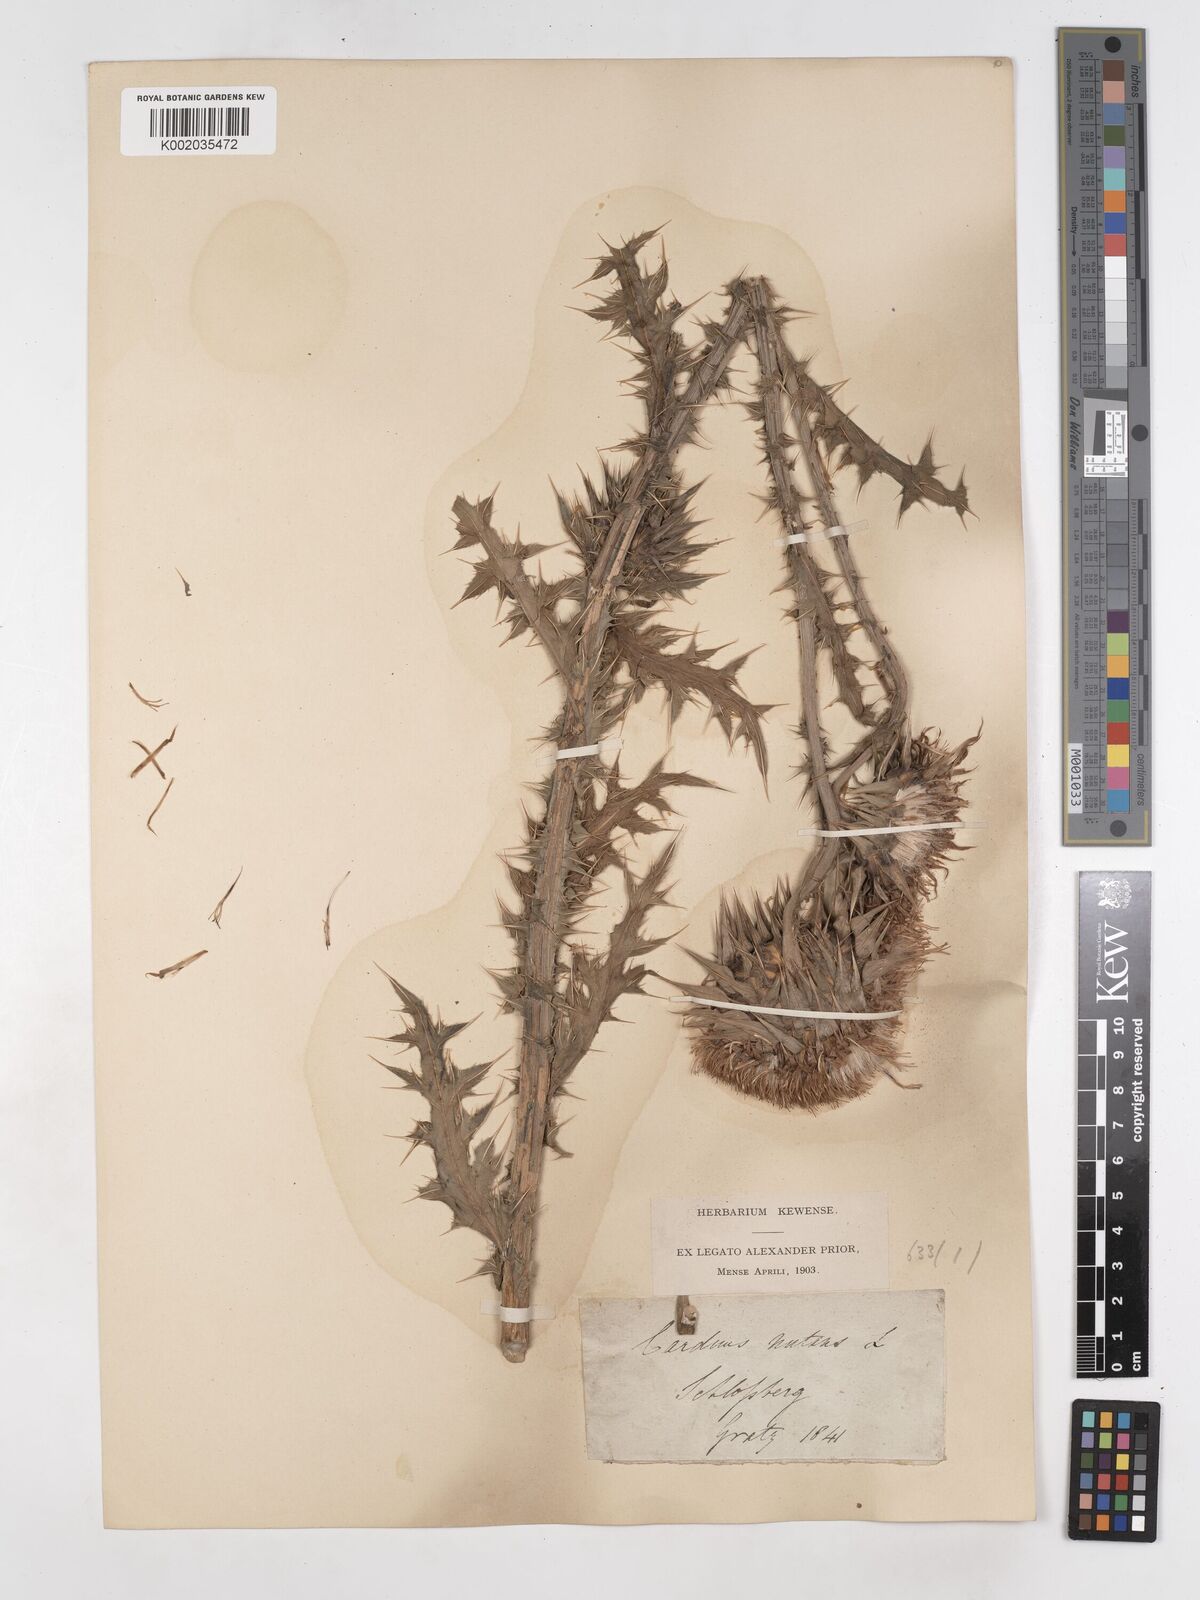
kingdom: Plantae
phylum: Tracheophyta
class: Magnoliopsida
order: Asterales
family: Asteraceae
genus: Carduus
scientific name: Carduus macrocephalus
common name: Giant thistle
